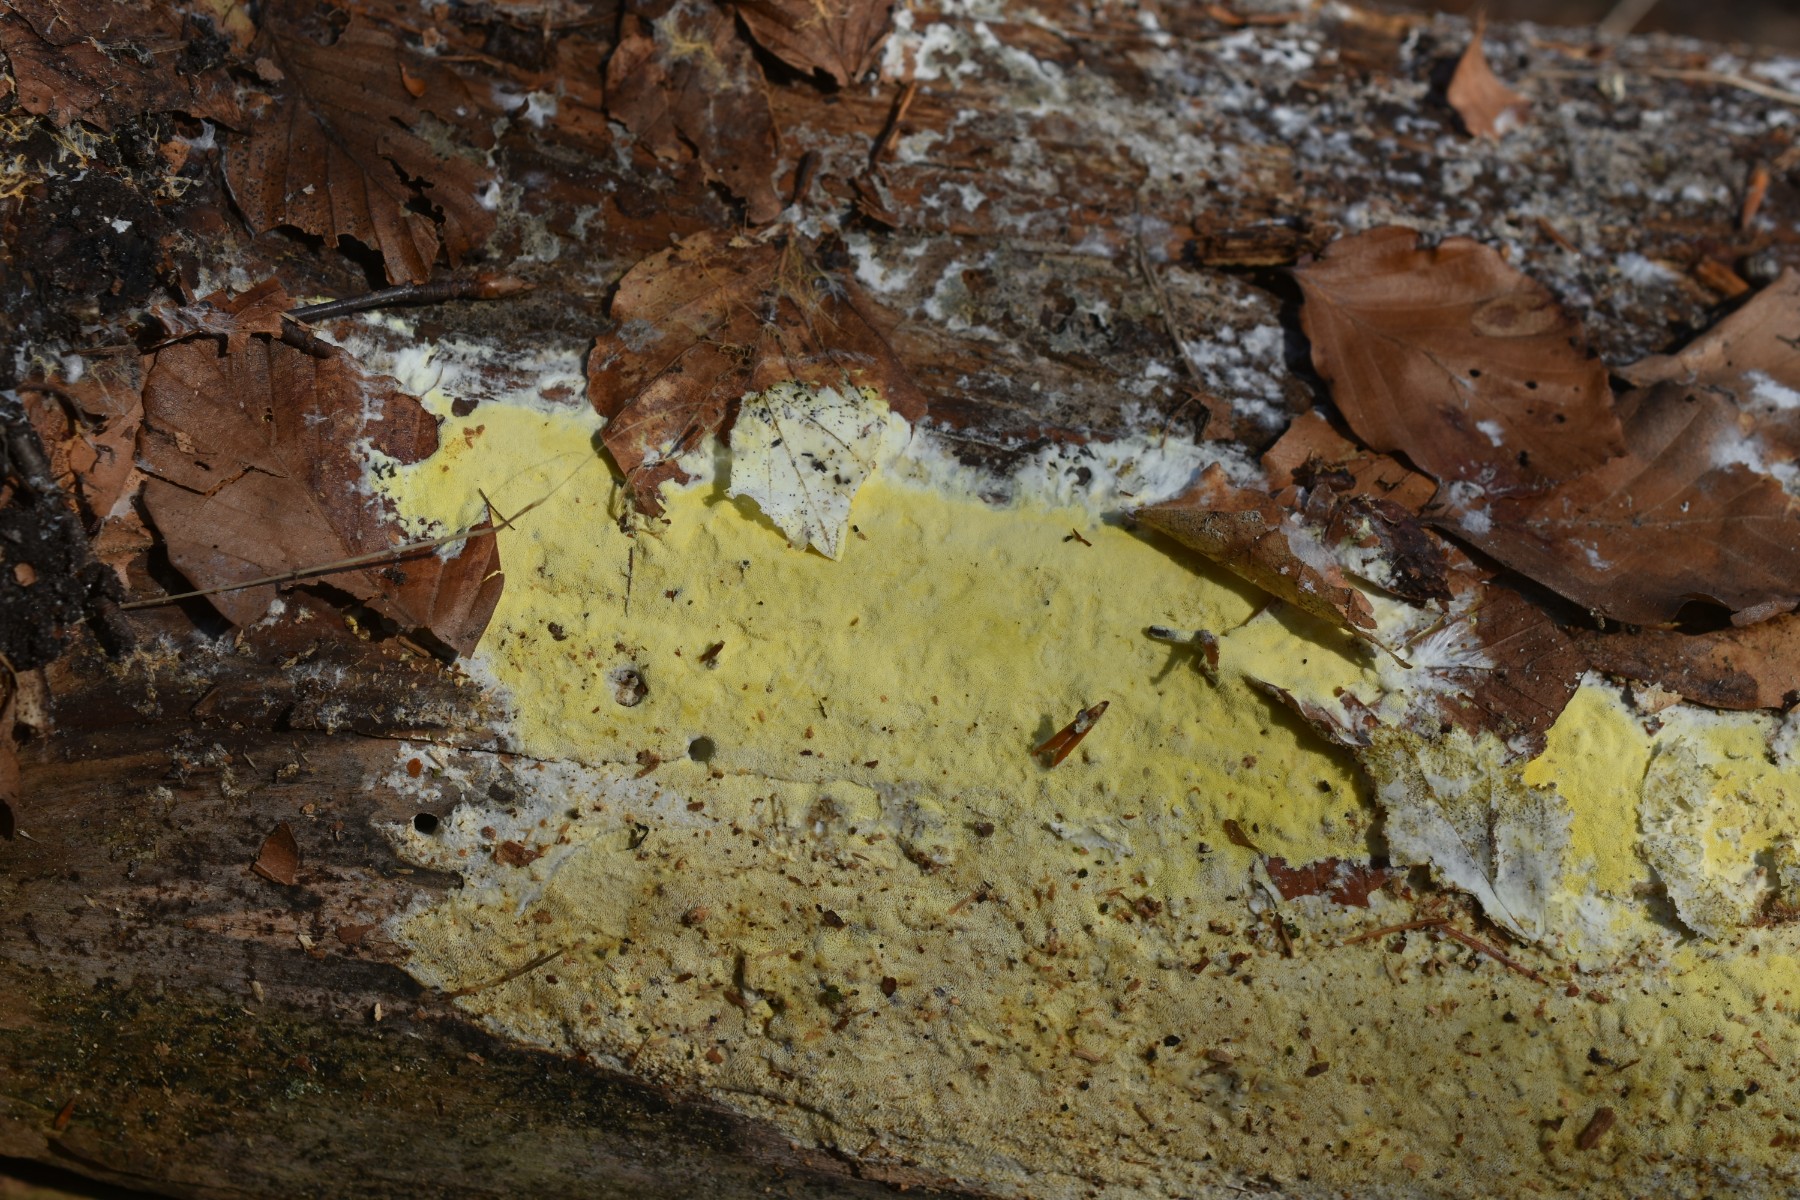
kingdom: Fungi
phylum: Basidiomycota
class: Agaricomycetes
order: Polyporales
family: Fomitopsidaceae
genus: Daedalea
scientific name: Daedalea xantha
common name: gul sejporesvamp
